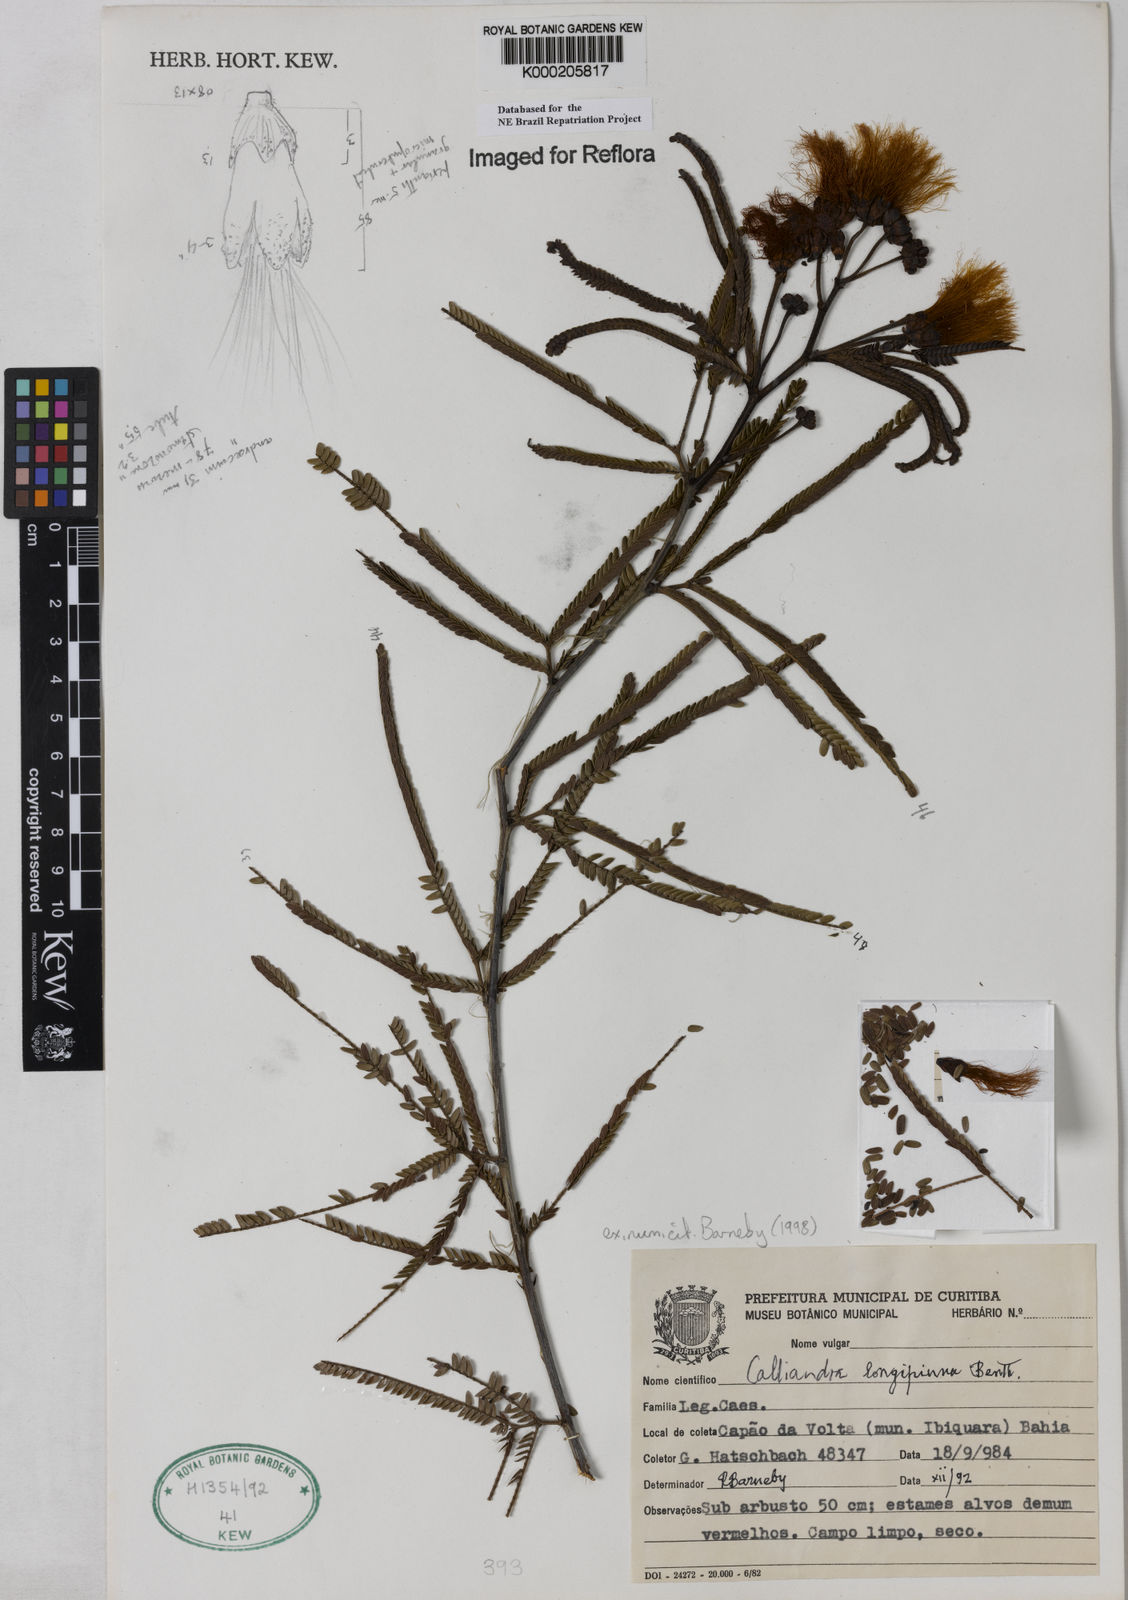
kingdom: Plantae
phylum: Tracheophyta
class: Magnoliopsida
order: Fabales
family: Fabaceae
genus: Calliandra
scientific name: Calliandra longipinna
